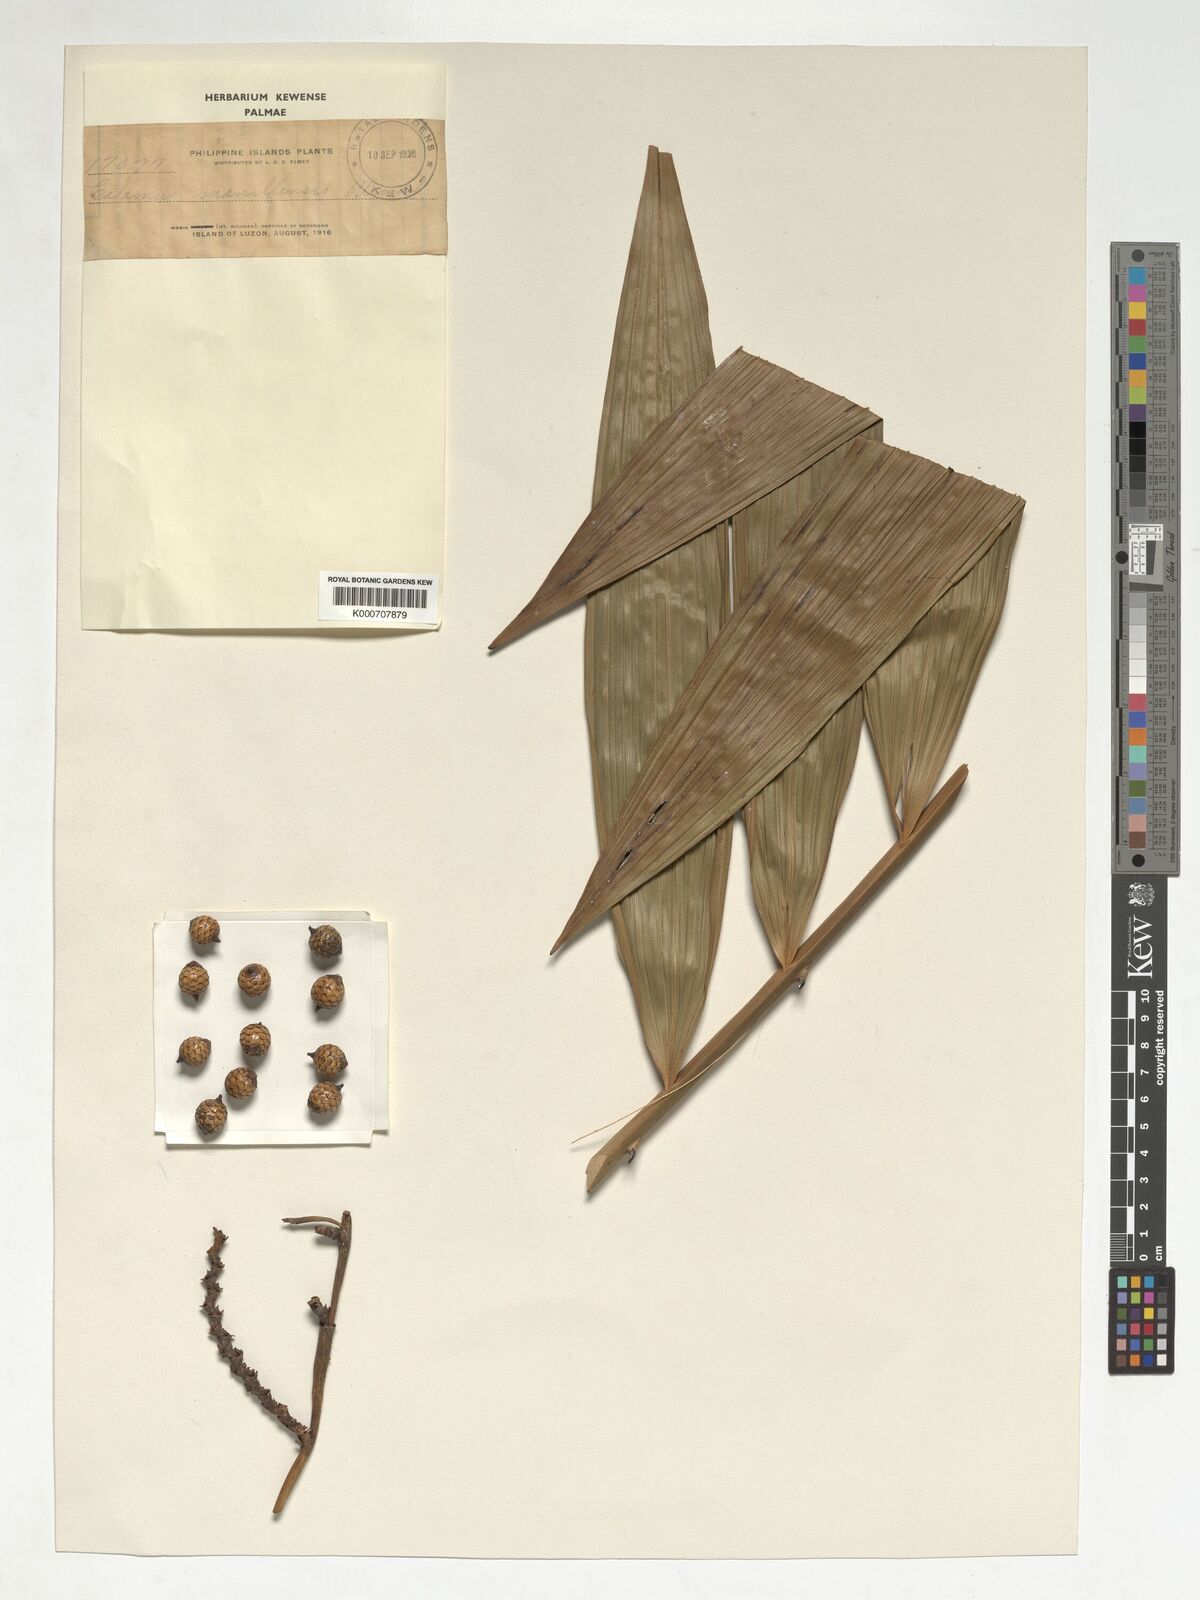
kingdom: Plantae
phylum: Tracheophyta
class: Liliopsida
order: Arecales
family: Arecaceae
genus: Calamus
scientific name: Calamus manillensis
